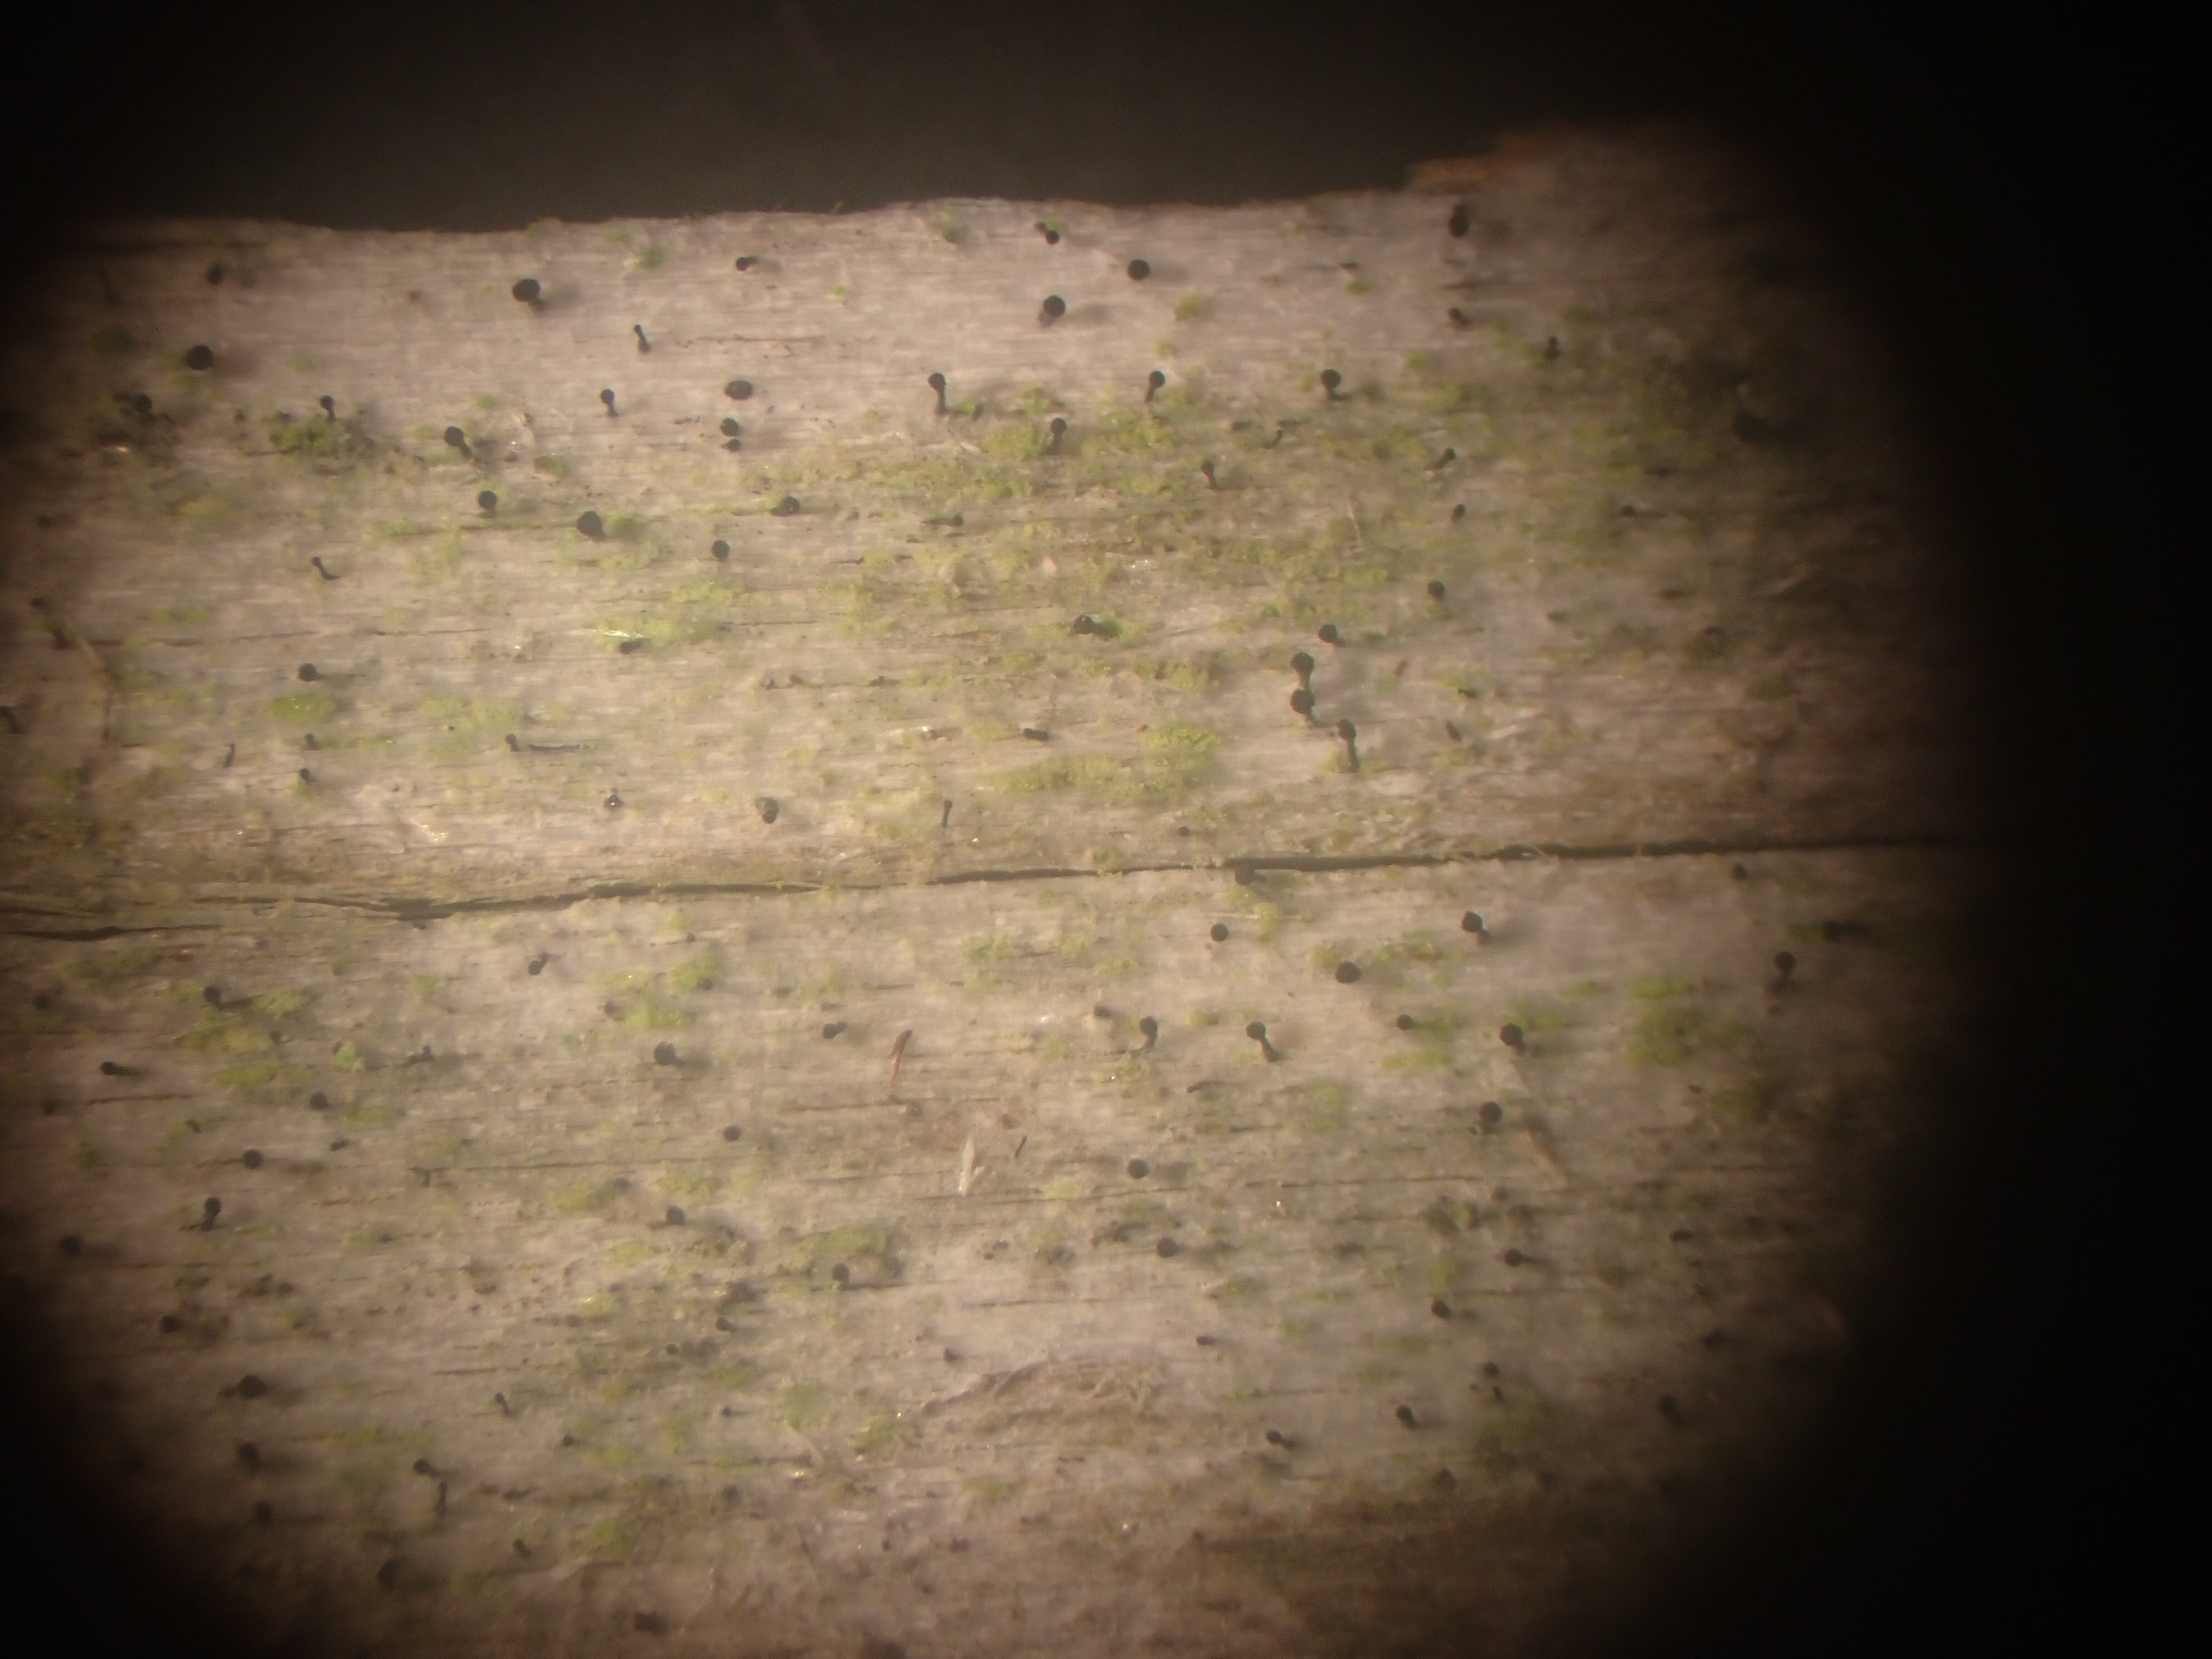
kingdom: Fungi
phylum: Ascomycota
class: Eurotiomycetes
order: Mycocaliciales
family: Mycocaliciaceae
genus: Mycocalicium
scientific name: Mycocalicium subtile
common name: Ved-nålesvamp
